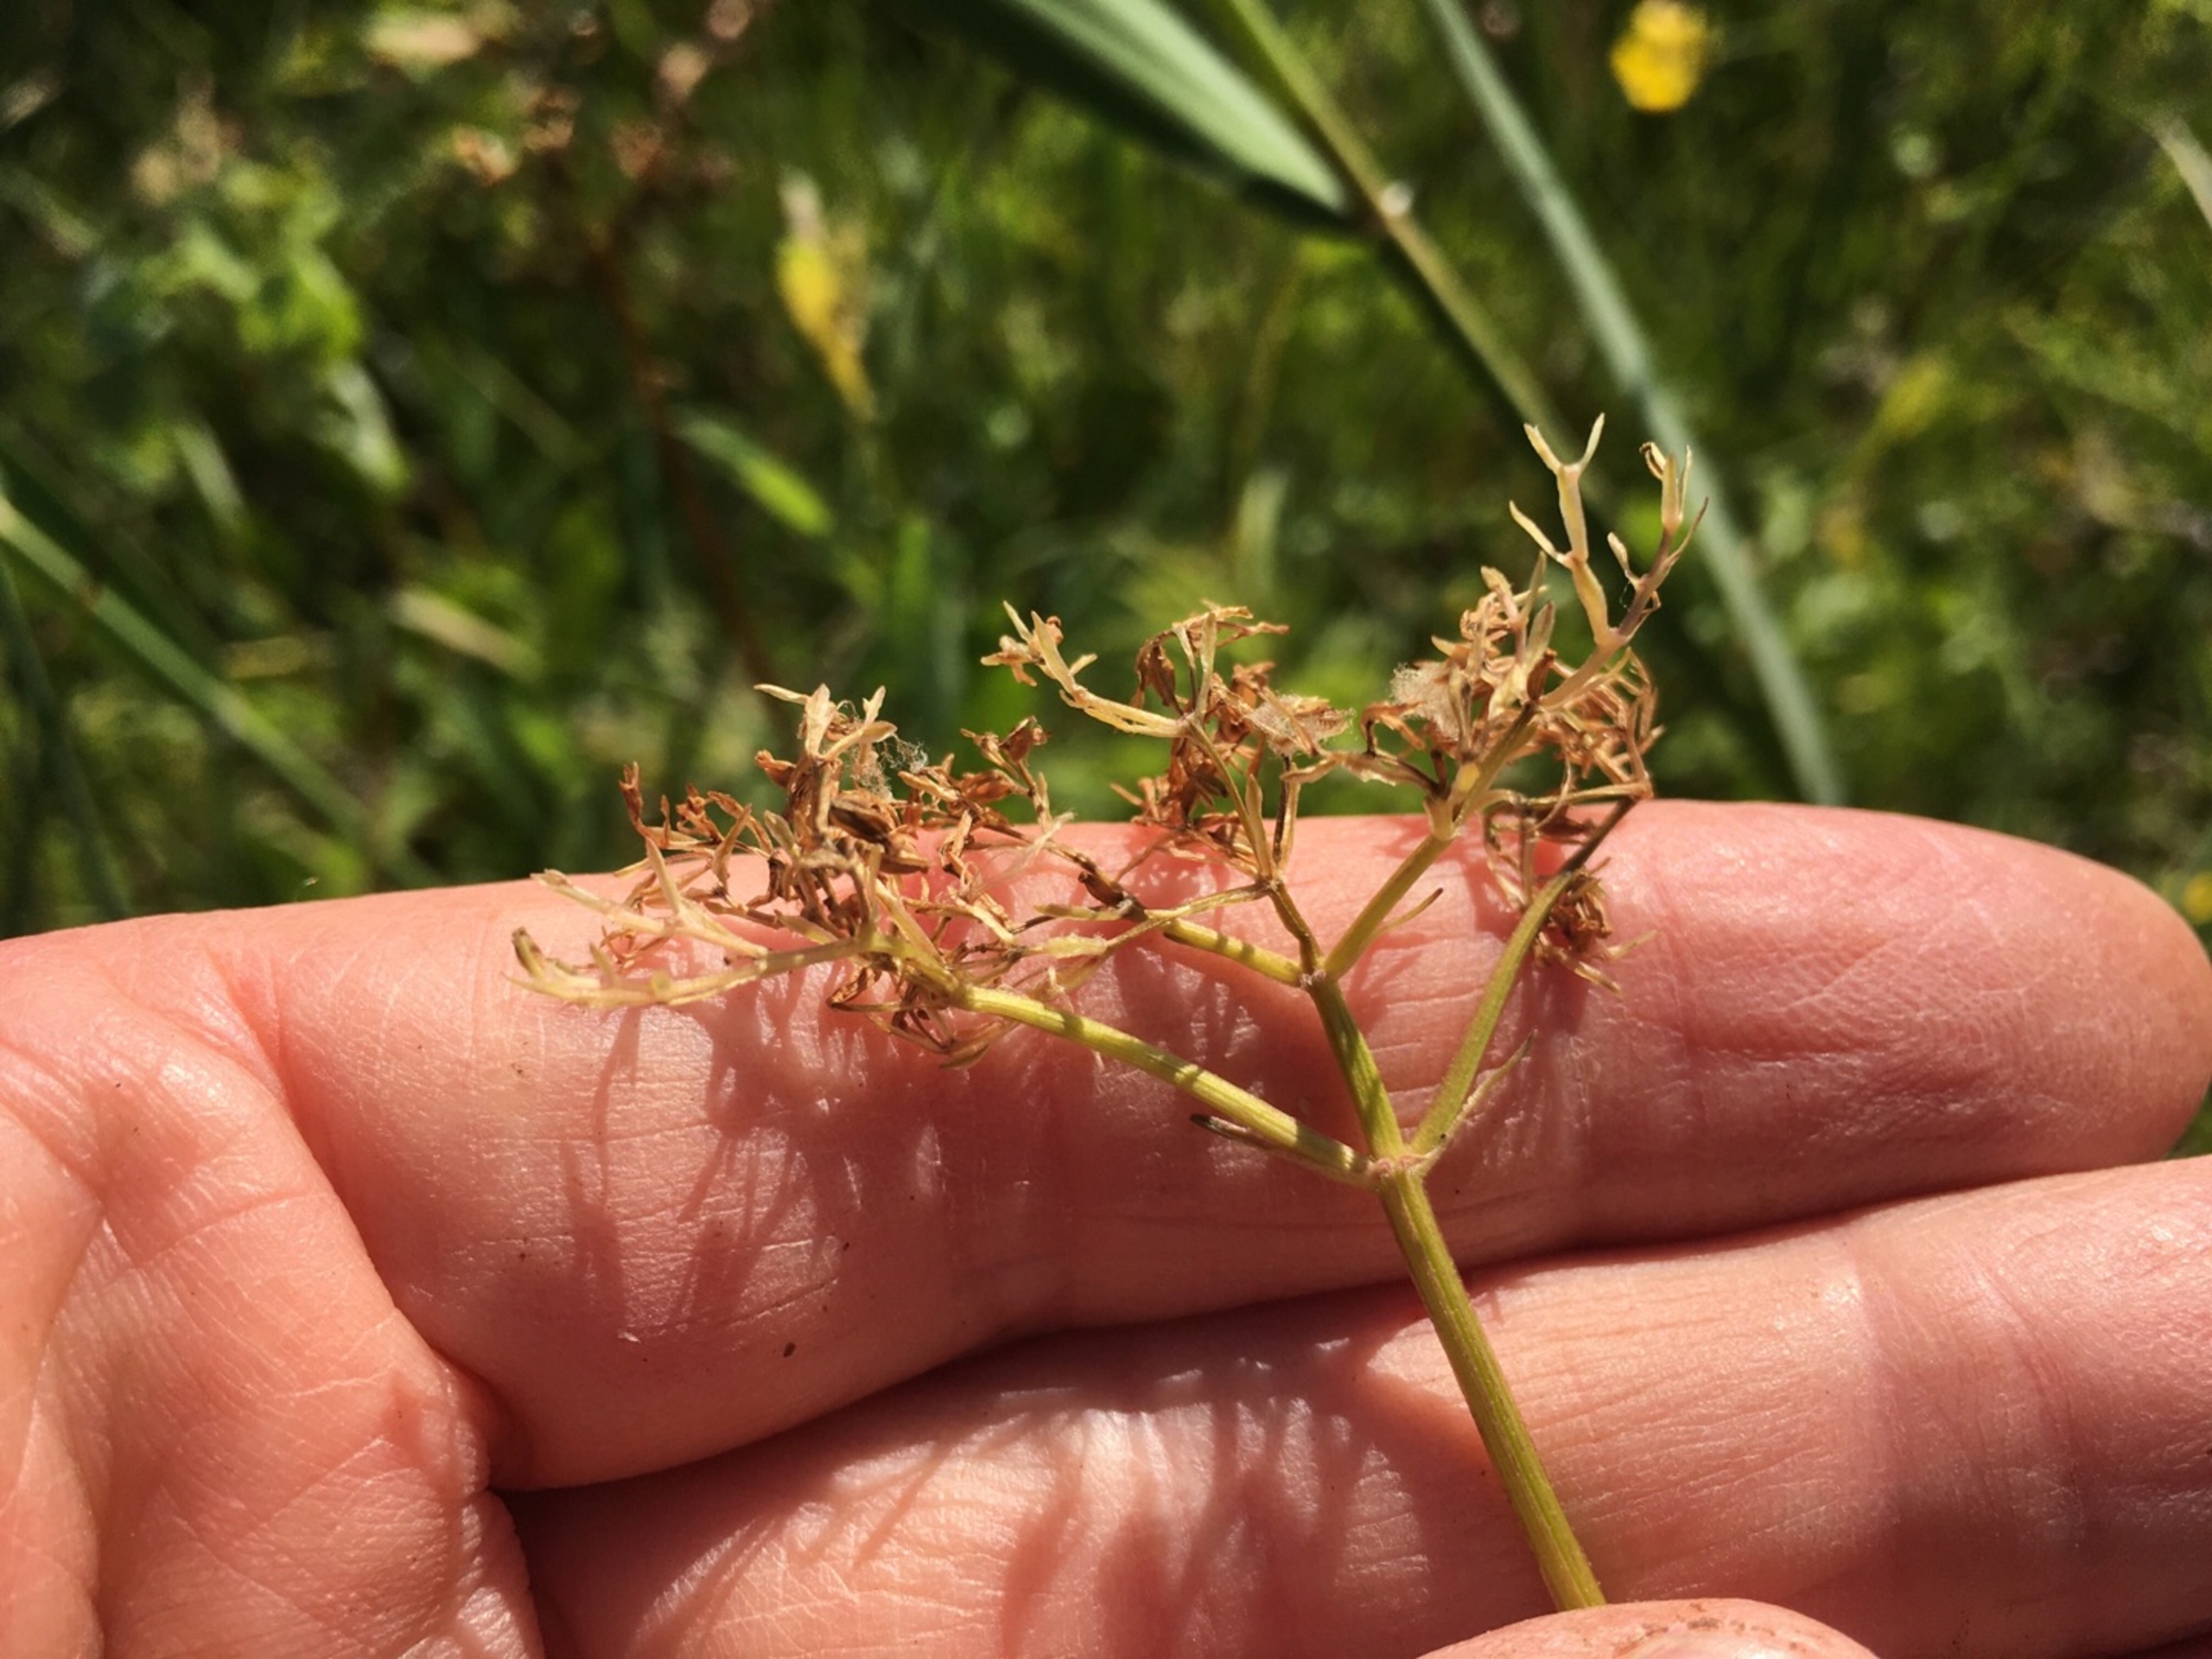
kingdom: Plantae
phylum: Tracheophyta
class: Magnoliopsida
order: Dipsacales
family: Caprifoliaceae
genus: Valeriana
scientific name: Valeriana dioica
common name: Tvebo baldrian
